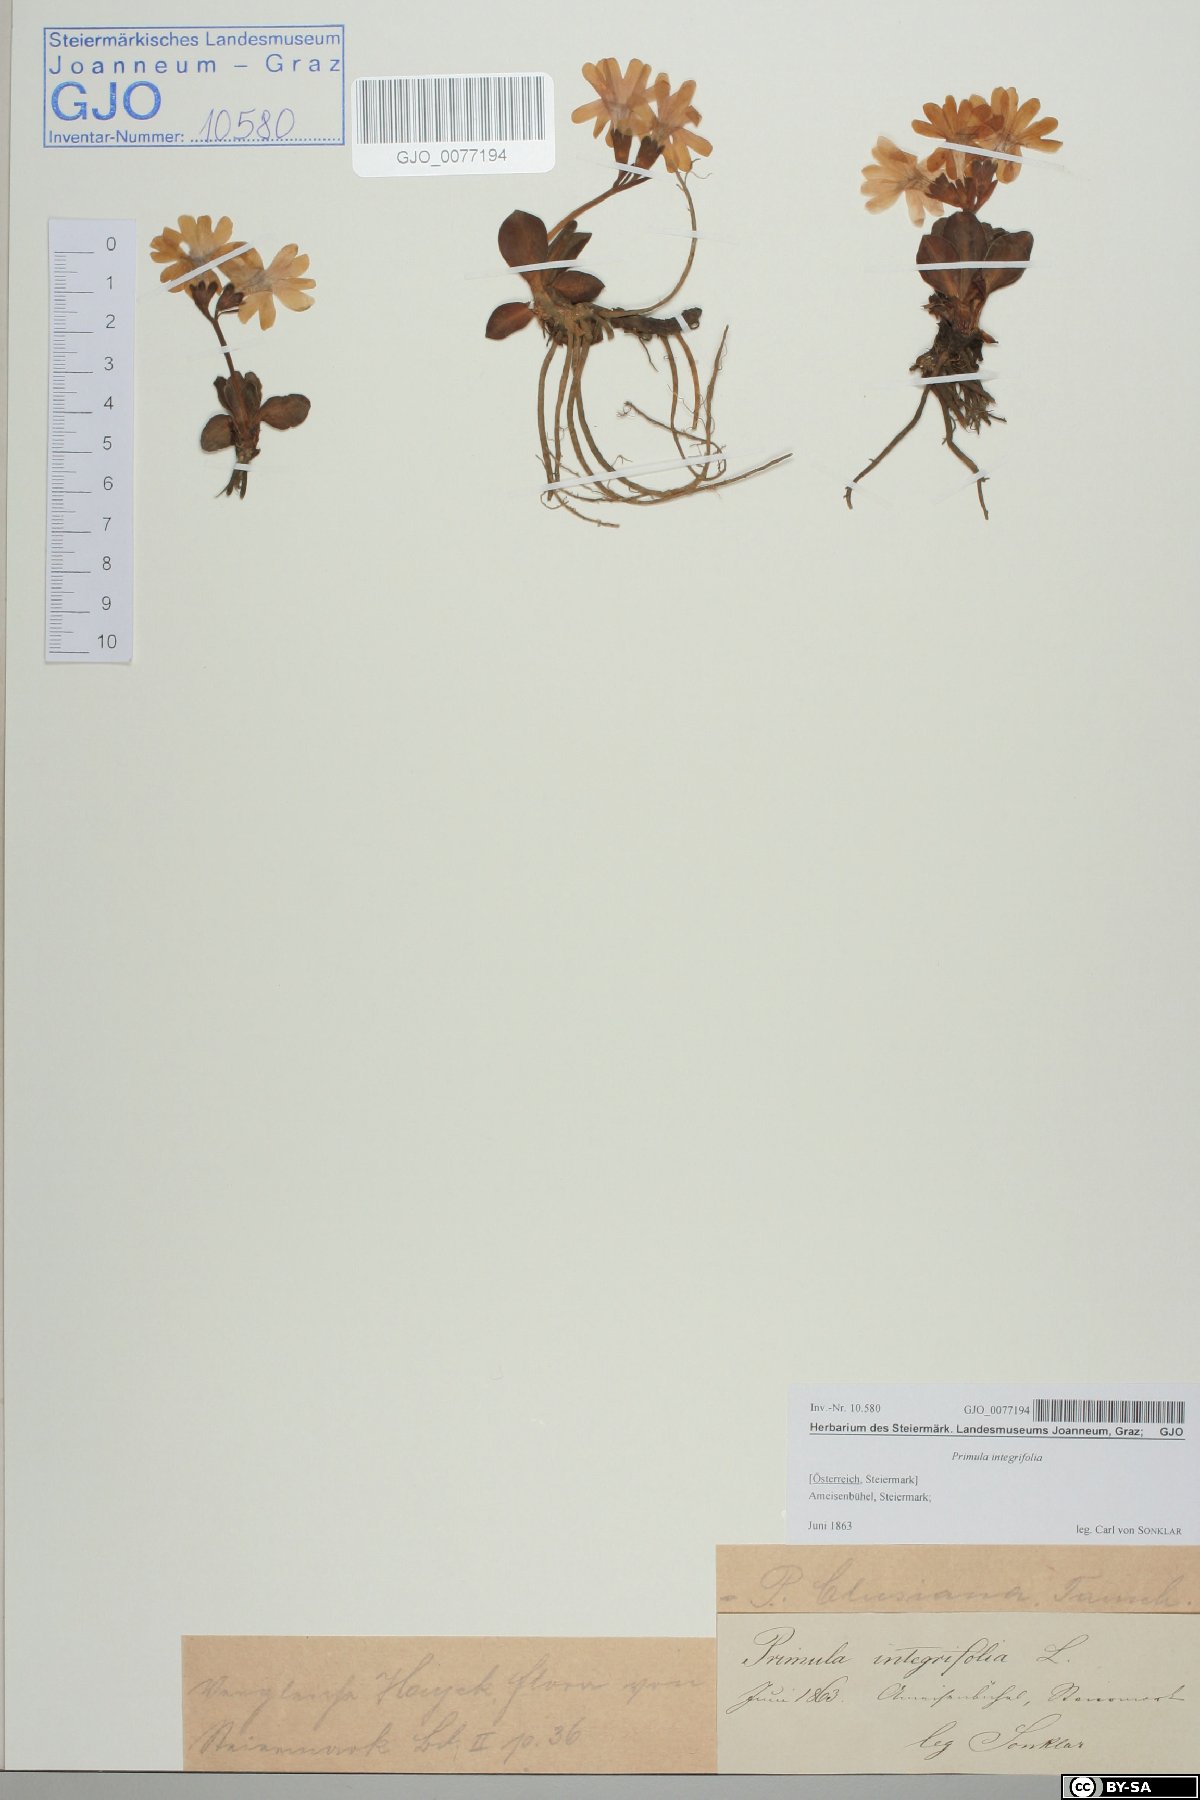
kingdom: Plantae
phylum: Tracheophyta
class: Magnoliopsida
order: Ericales
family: Primulaceae
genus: Primula
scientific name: Primula clusiana
